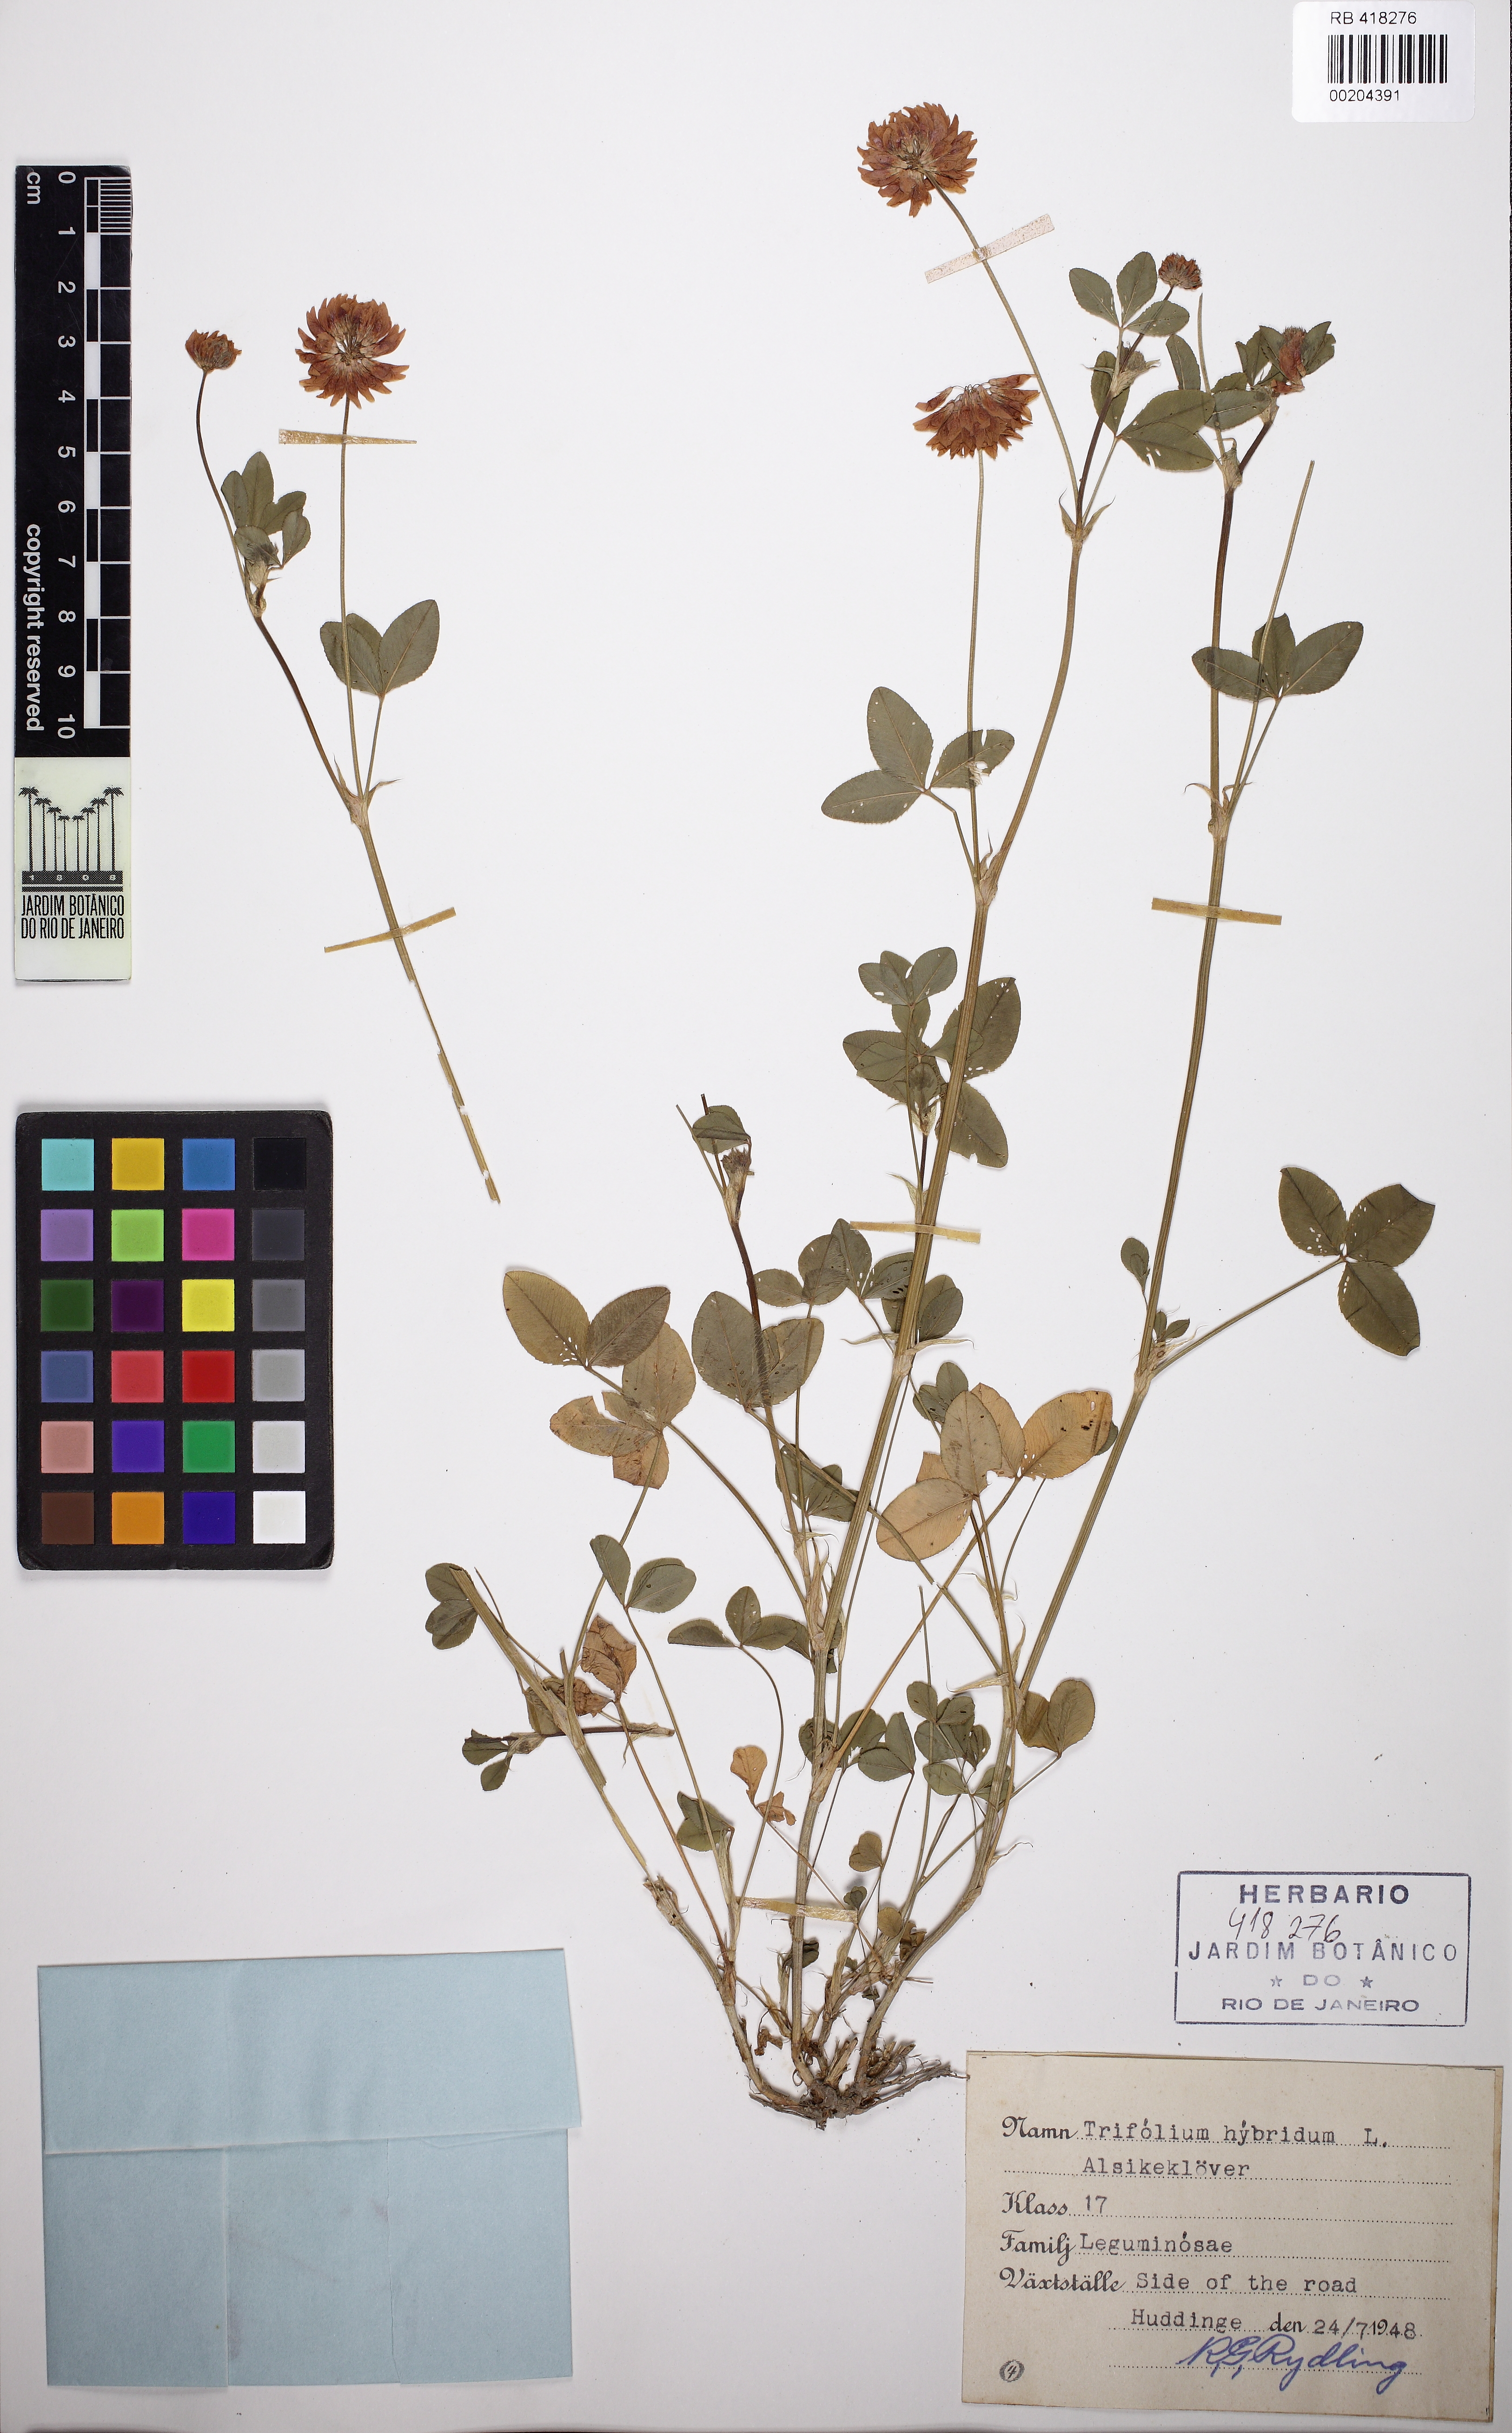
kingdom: Plantae
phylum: Tracheophyta
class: Magnoliopsida
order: Fabales
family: Fabaceae
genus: Trifolium
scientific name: Trifolium hybridum
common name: Alsike clover
